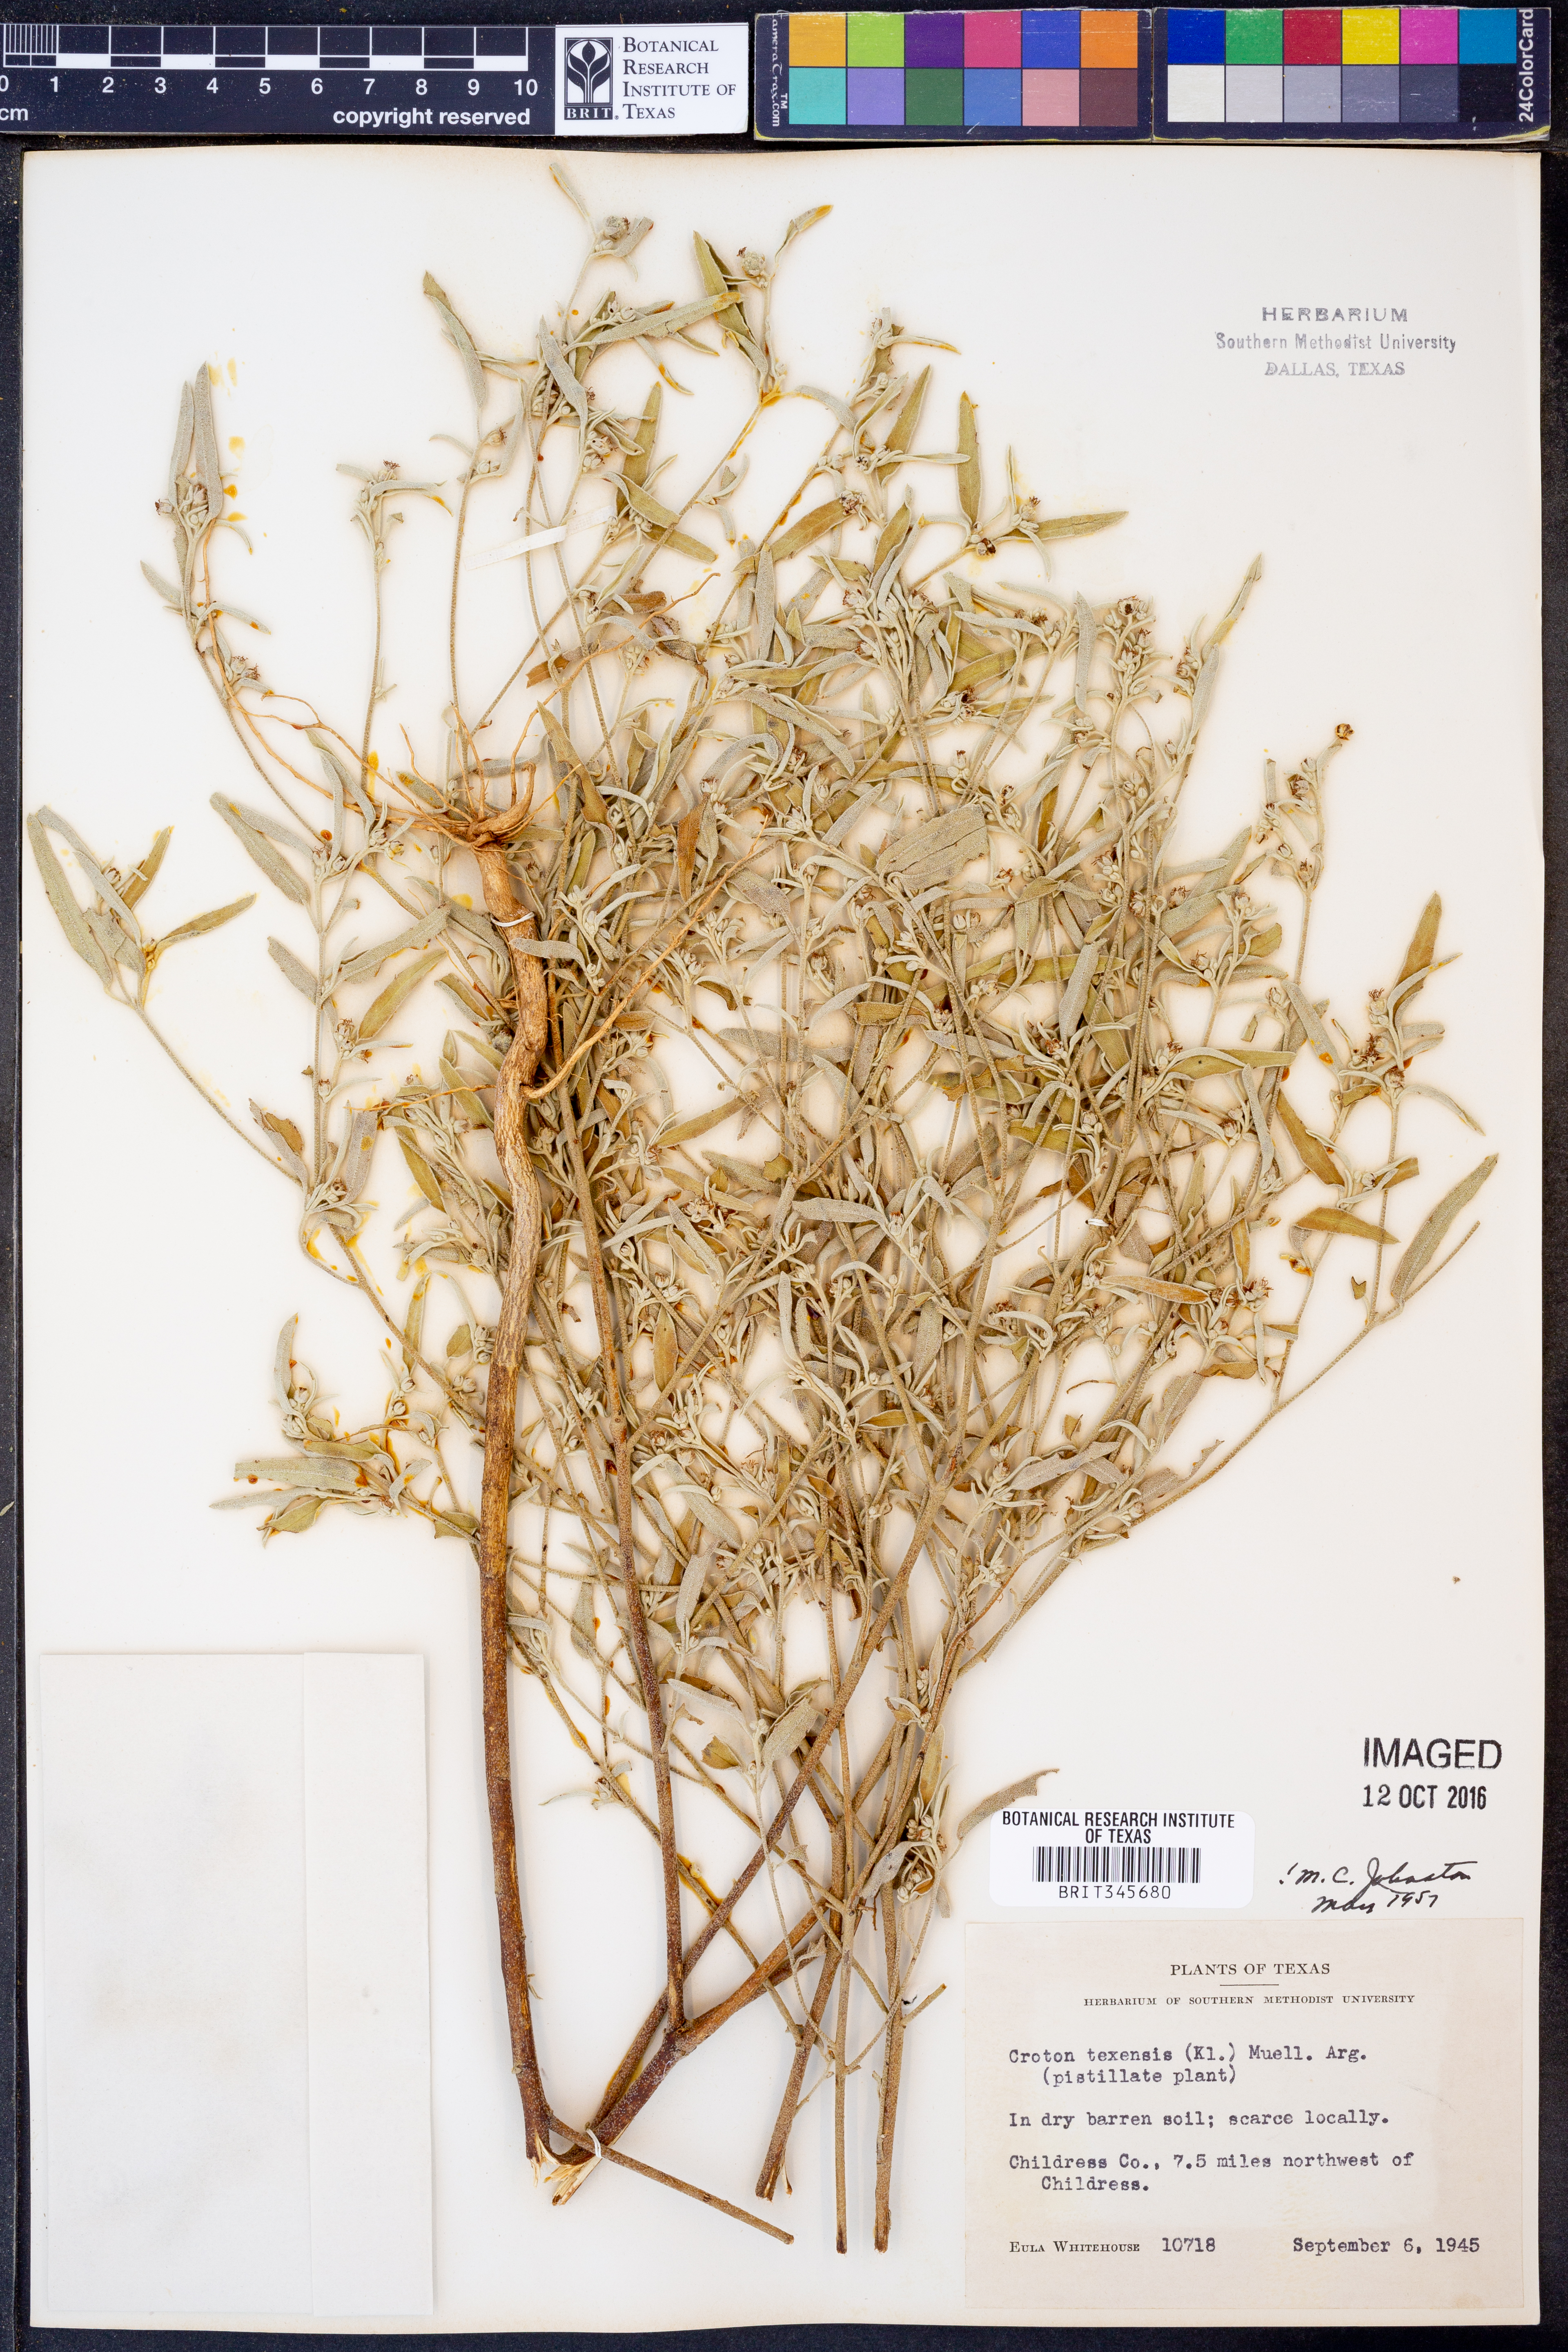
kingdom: Plantae
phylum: Tracheophyta
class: Magnoliopsida
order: Malpighiales
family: Euphorbiaceae
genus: Croton
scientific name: Croton texensis
